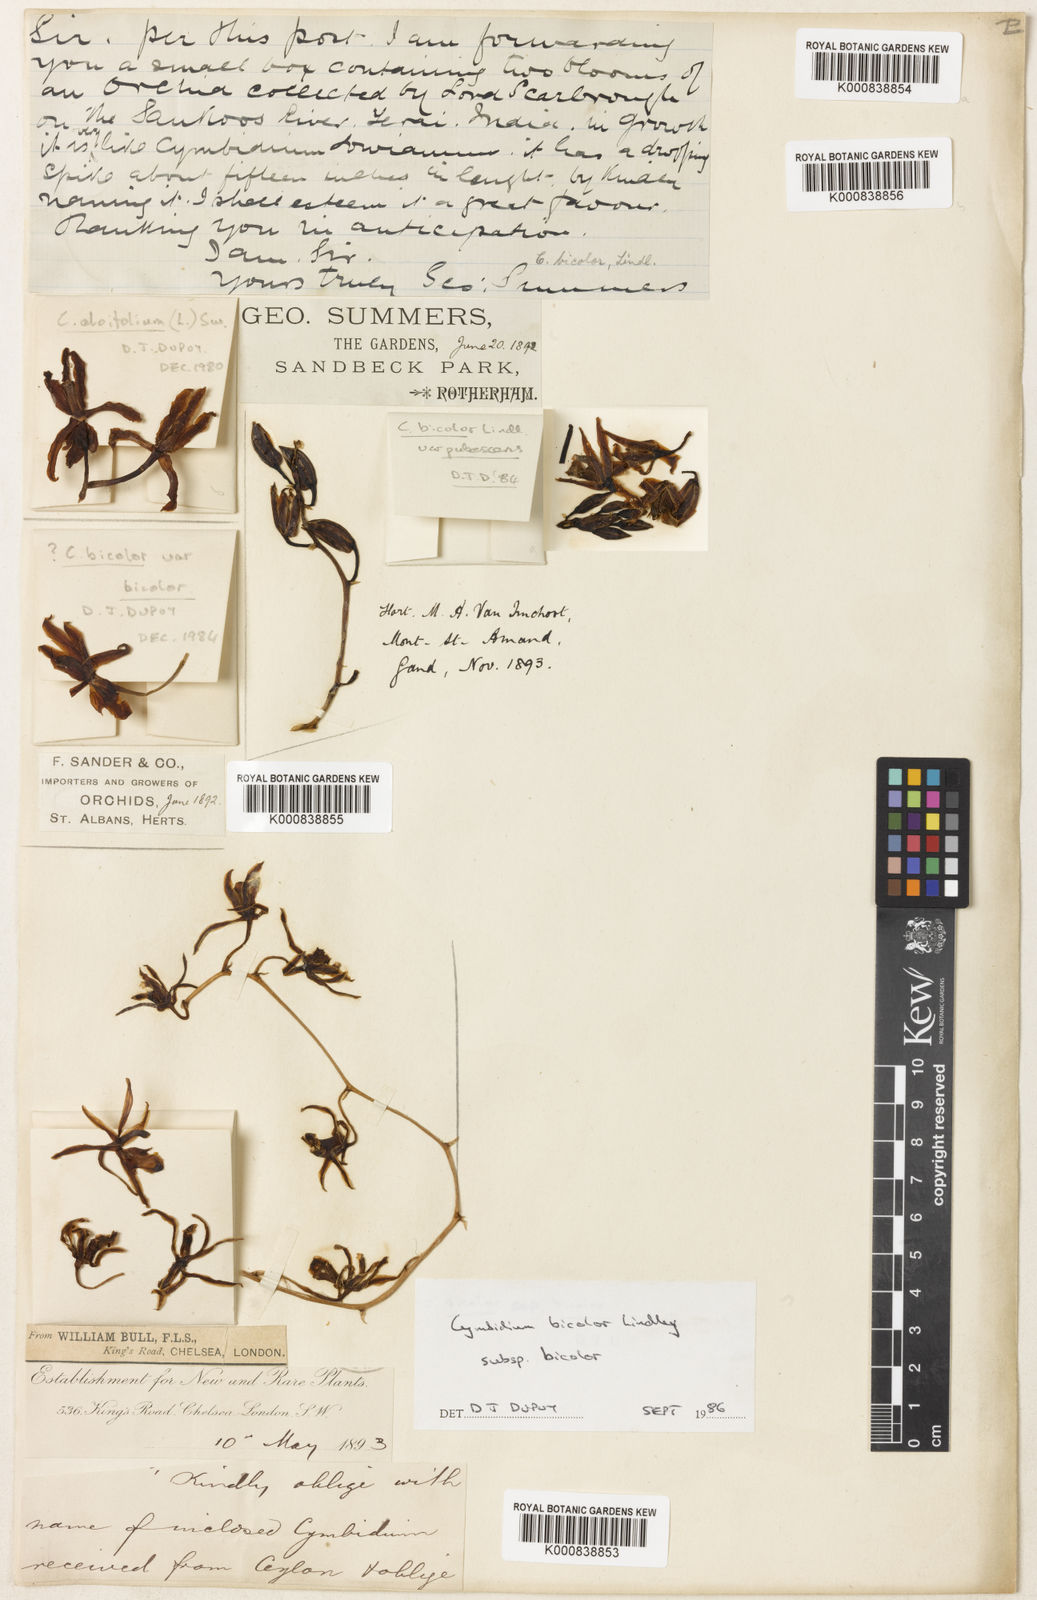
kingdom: Plantae
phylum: Tracheophyta
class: Liliopsida
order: Asparagales
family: Orchidaceae
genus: Cymbidium
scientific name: Cymbidium bicolor
